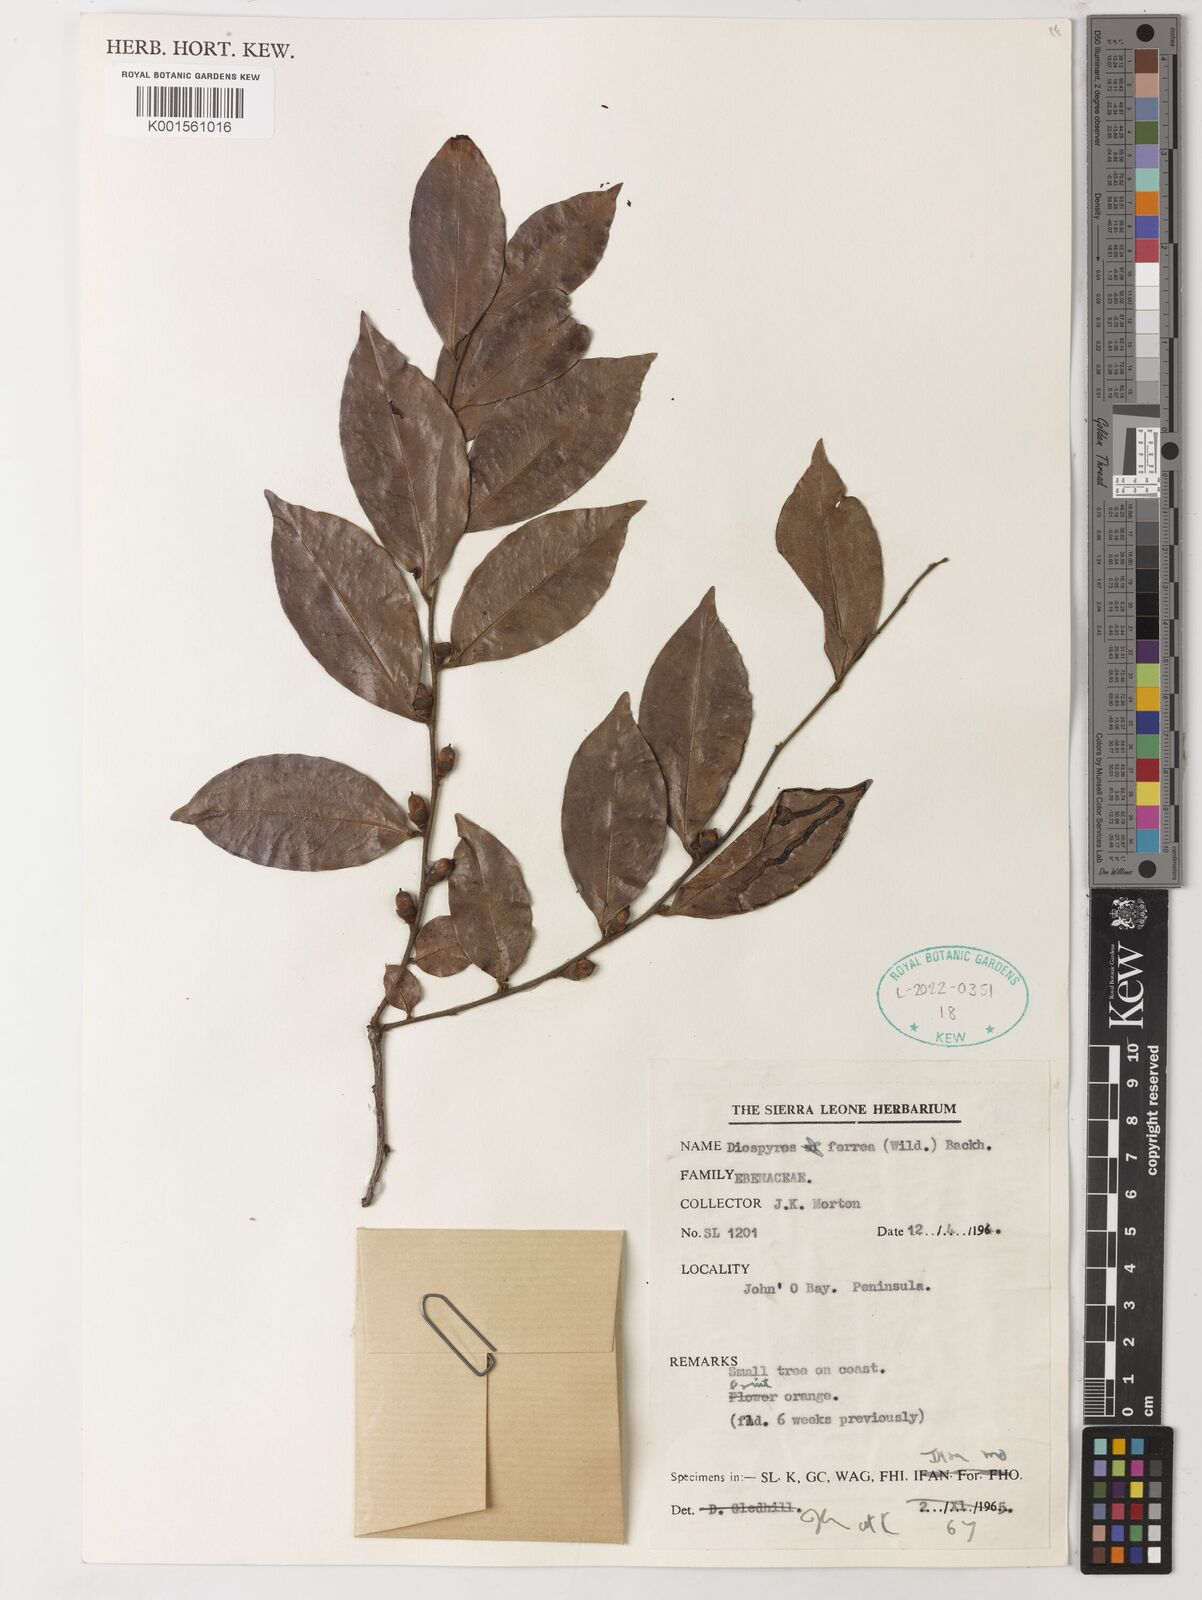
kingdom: Plantae
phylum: Tracheophyta
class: Magnoliopsida
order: Ericales
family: Ebenaceae
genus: Diospyros
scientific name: Diospyros ferrea
